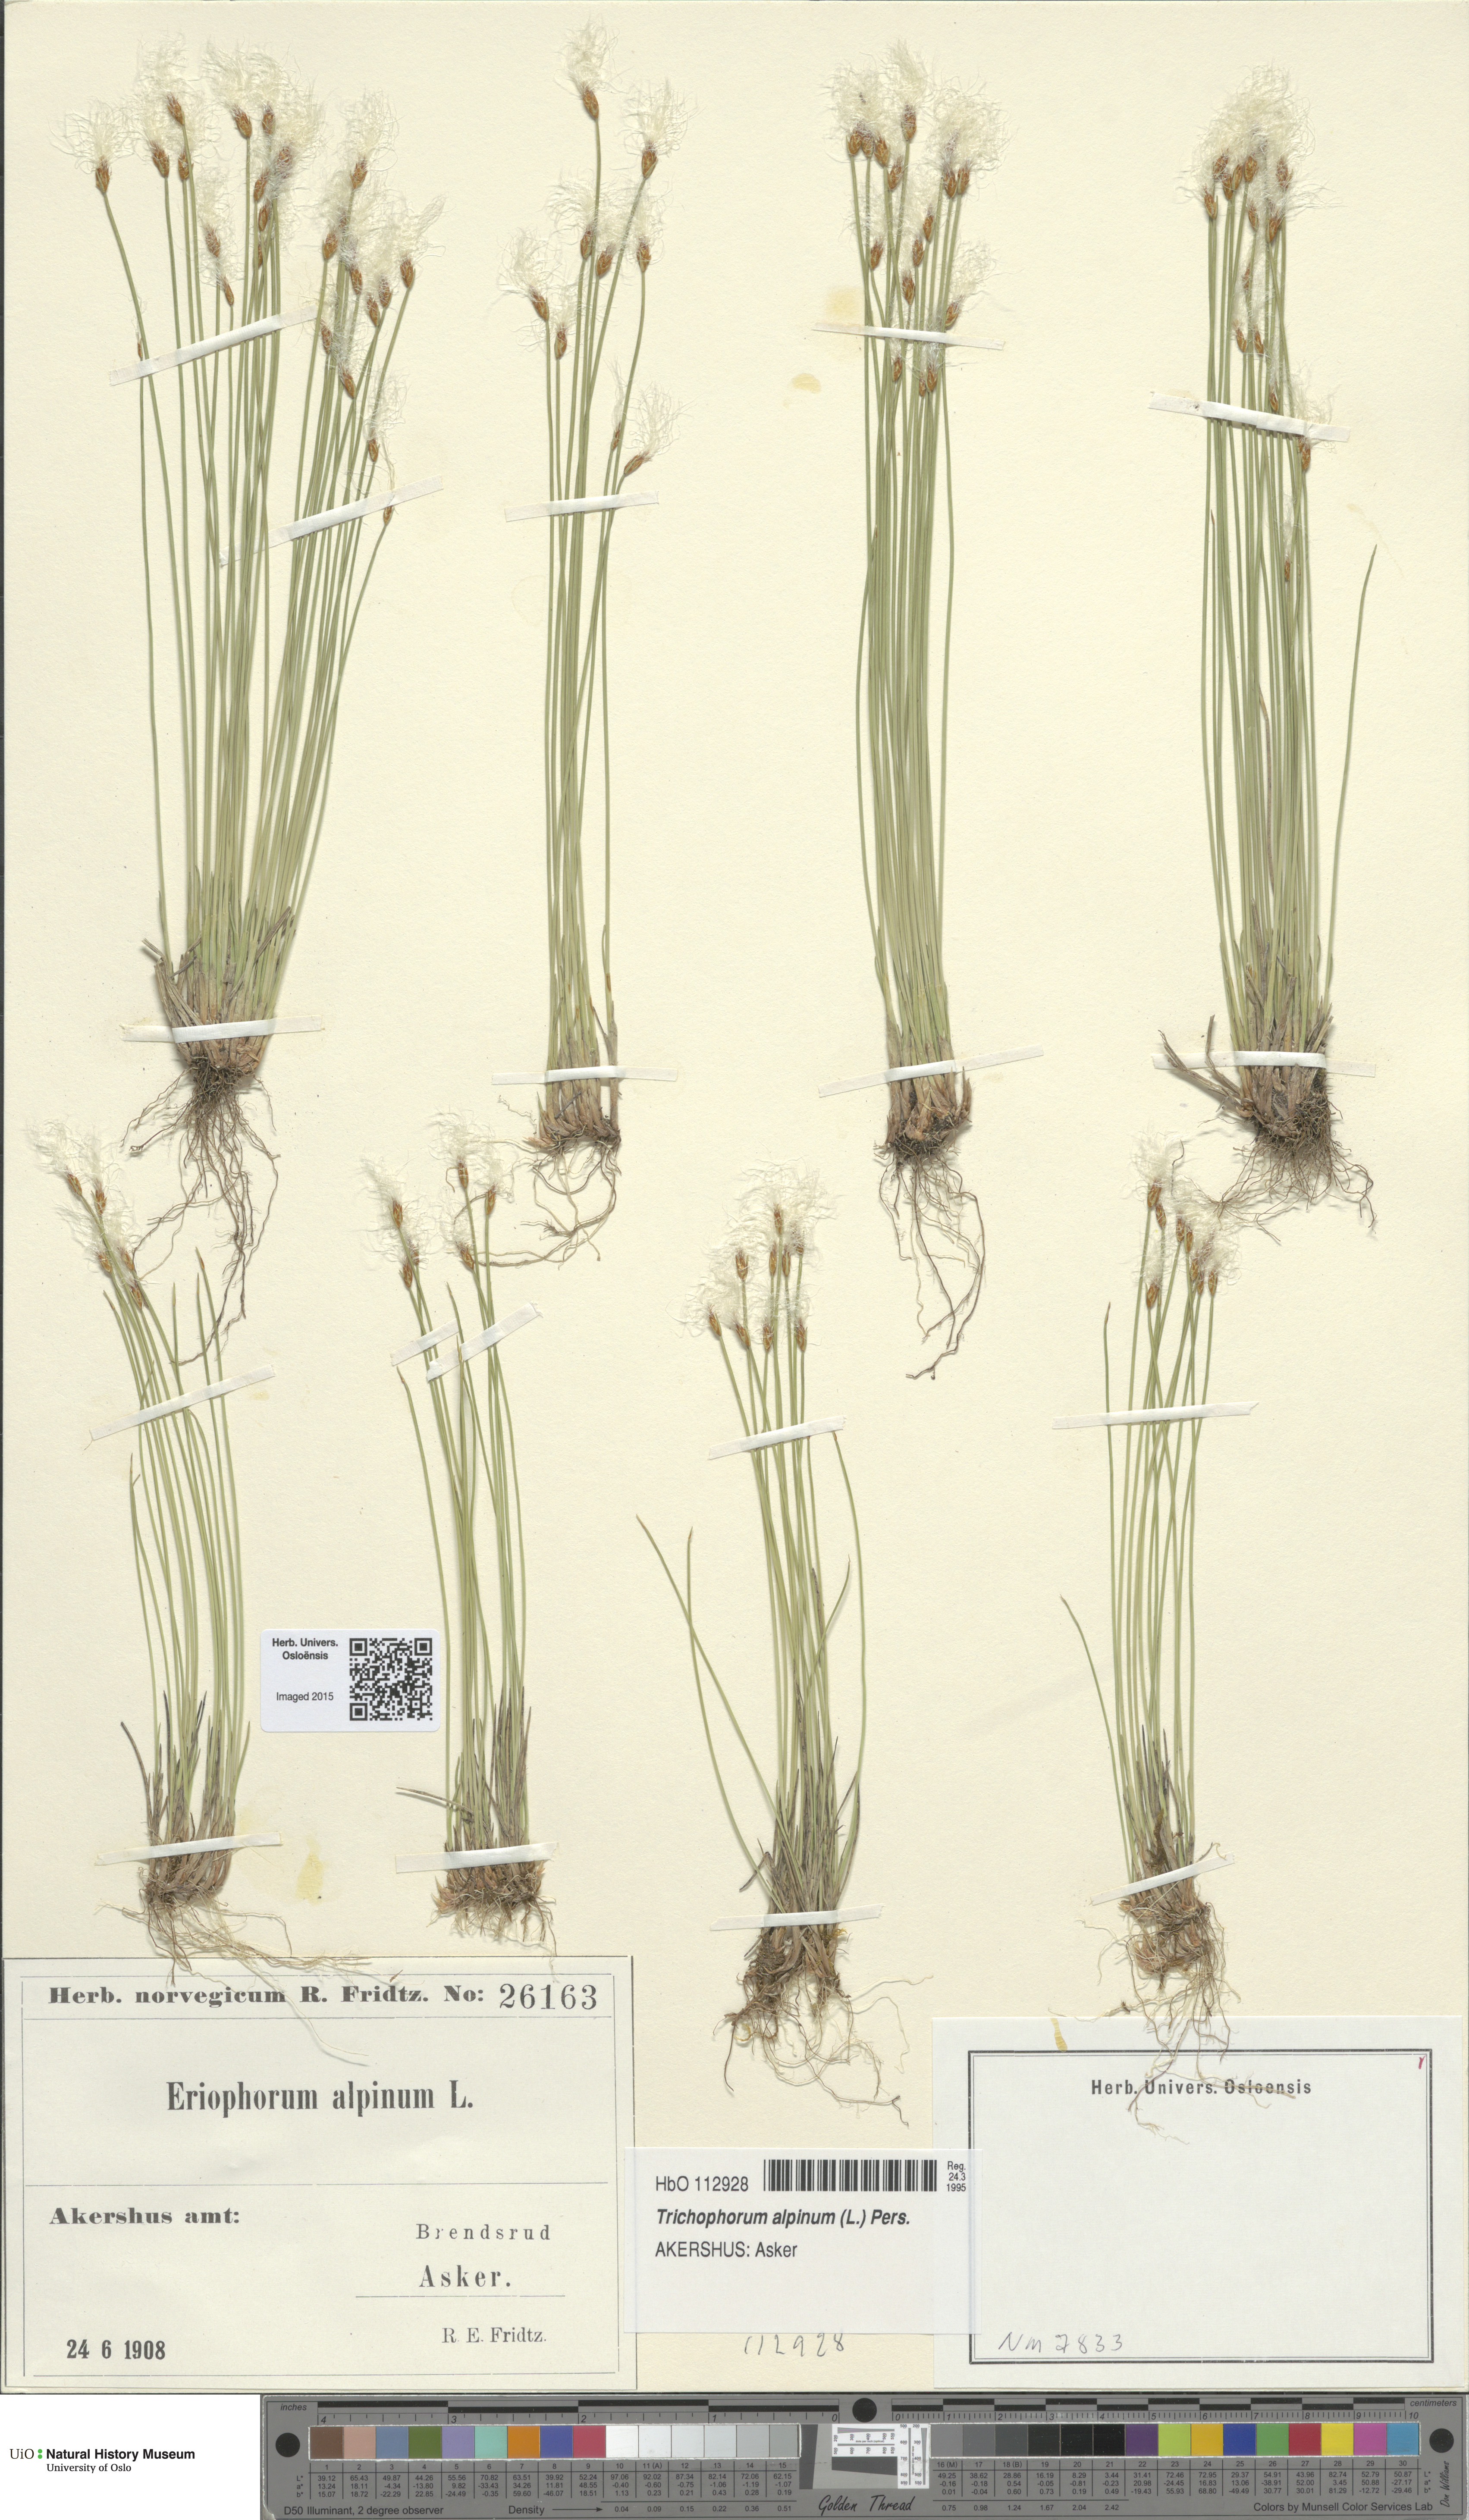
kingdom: Plantae
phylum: Tracheophyta
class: Liliopsida
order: Poales
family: Cyperaceae
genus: Trichophorum
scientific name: Trichophorum alpinum
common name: Alpine bulrush
